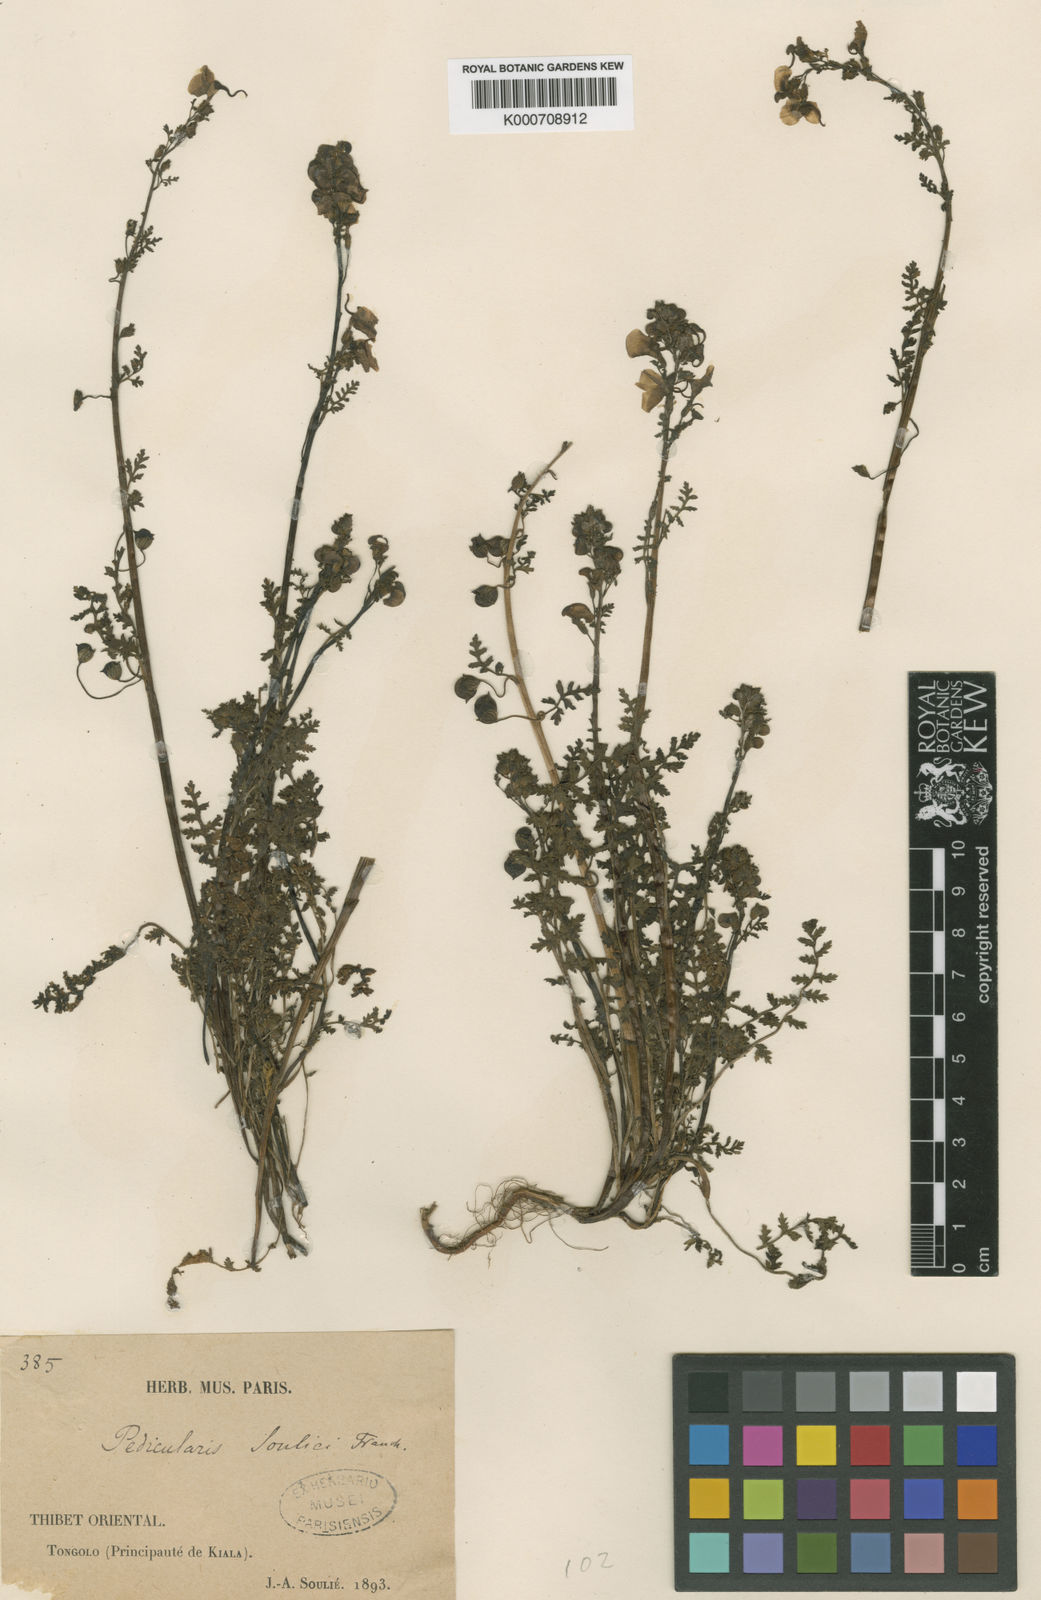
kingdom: Plantae
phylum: Tracheophyta
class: Magnoliopsida
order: Lamiales
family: Orobanchaceae
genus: Pedicularis
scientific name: Pedicularis souliei
